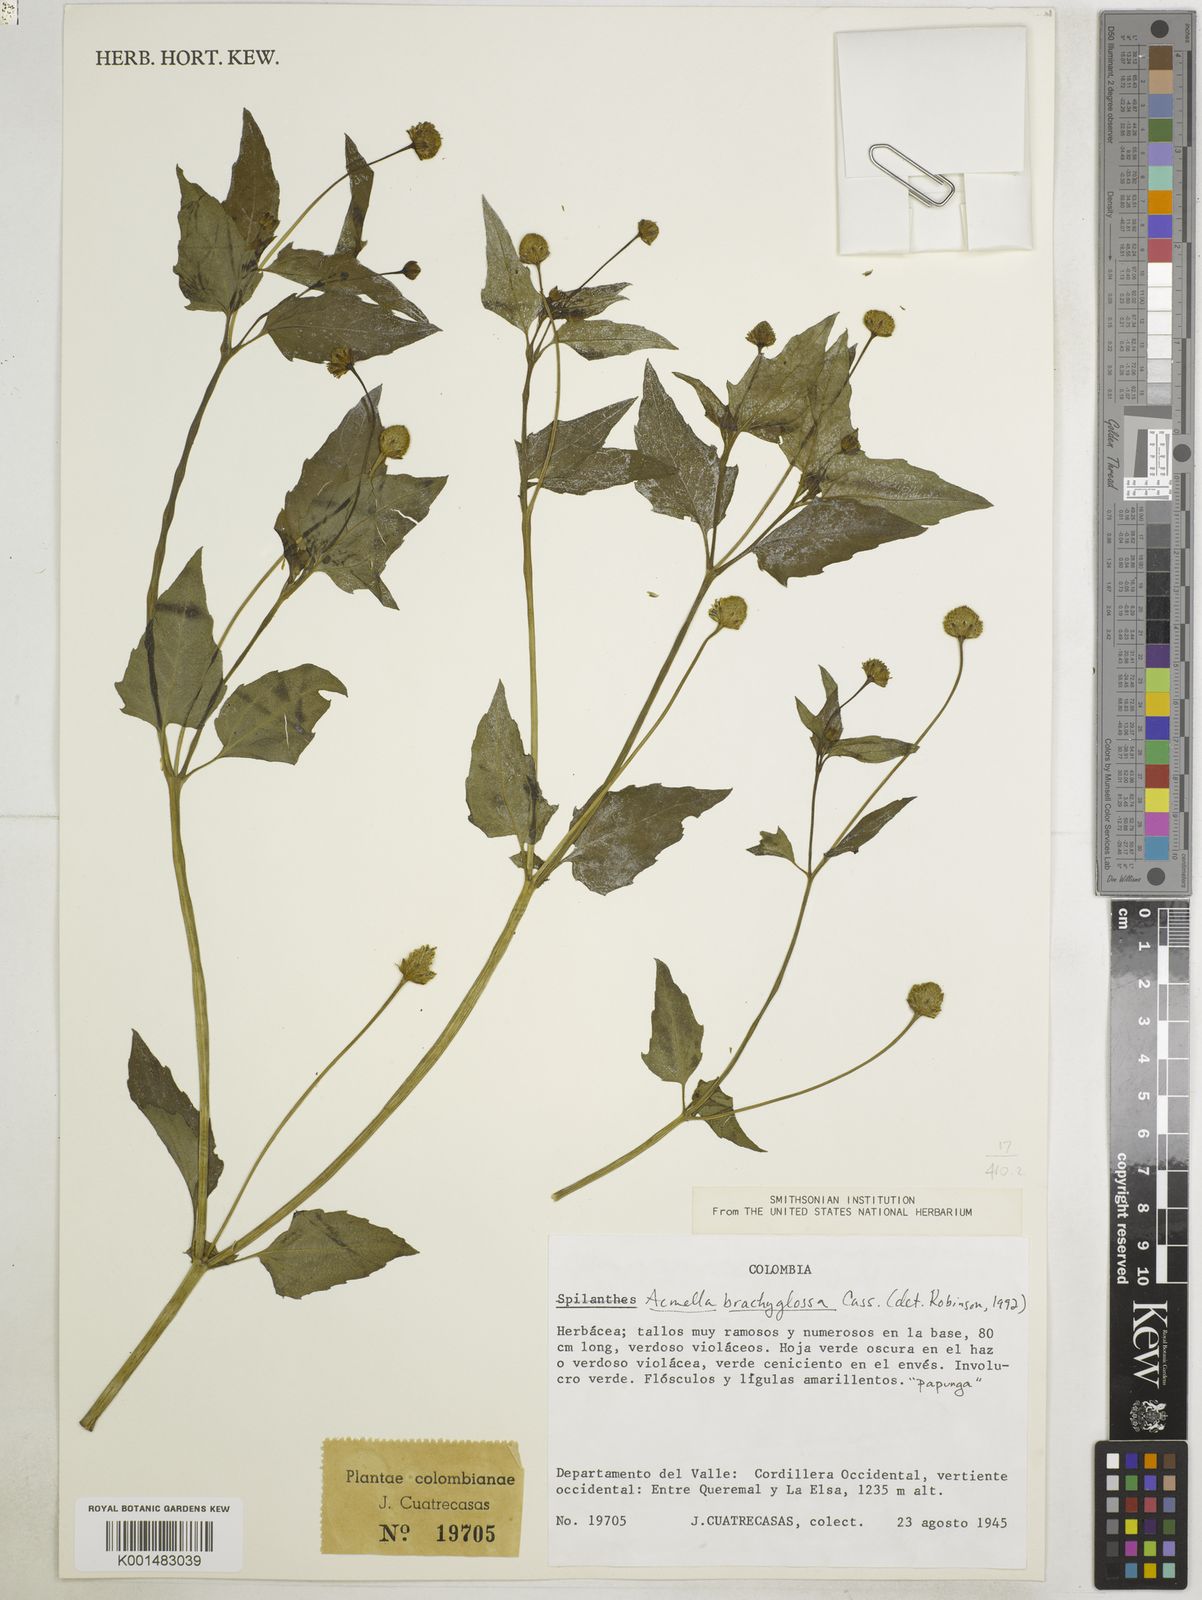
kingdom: Plantae
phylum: Tracheophyta
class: Magnoliopsida
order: Asterales
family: Asteraceae
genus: Acmella
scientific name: Acmella brachyglossa
